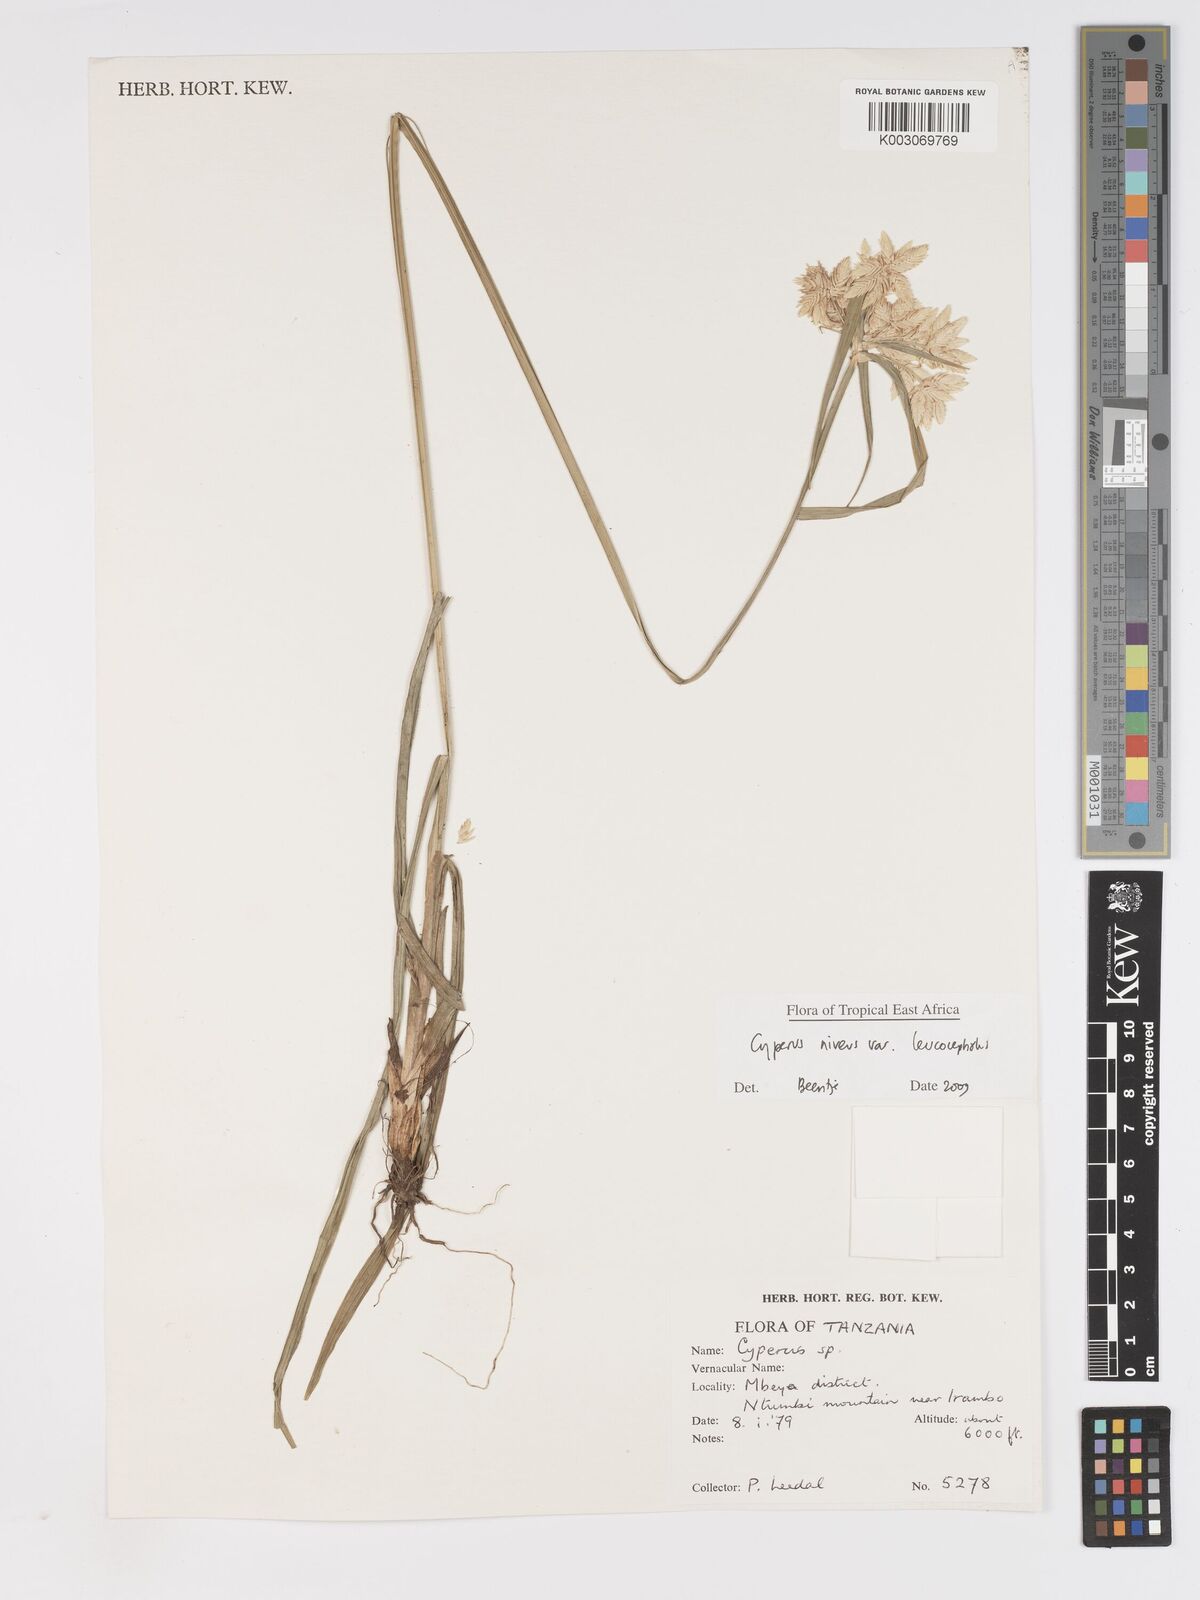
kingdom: Plantae
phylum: Tracheophyta
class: Liliopsida
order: Poales
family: Cyperaceae
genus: Cyperus
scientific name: Cyperus niveus
